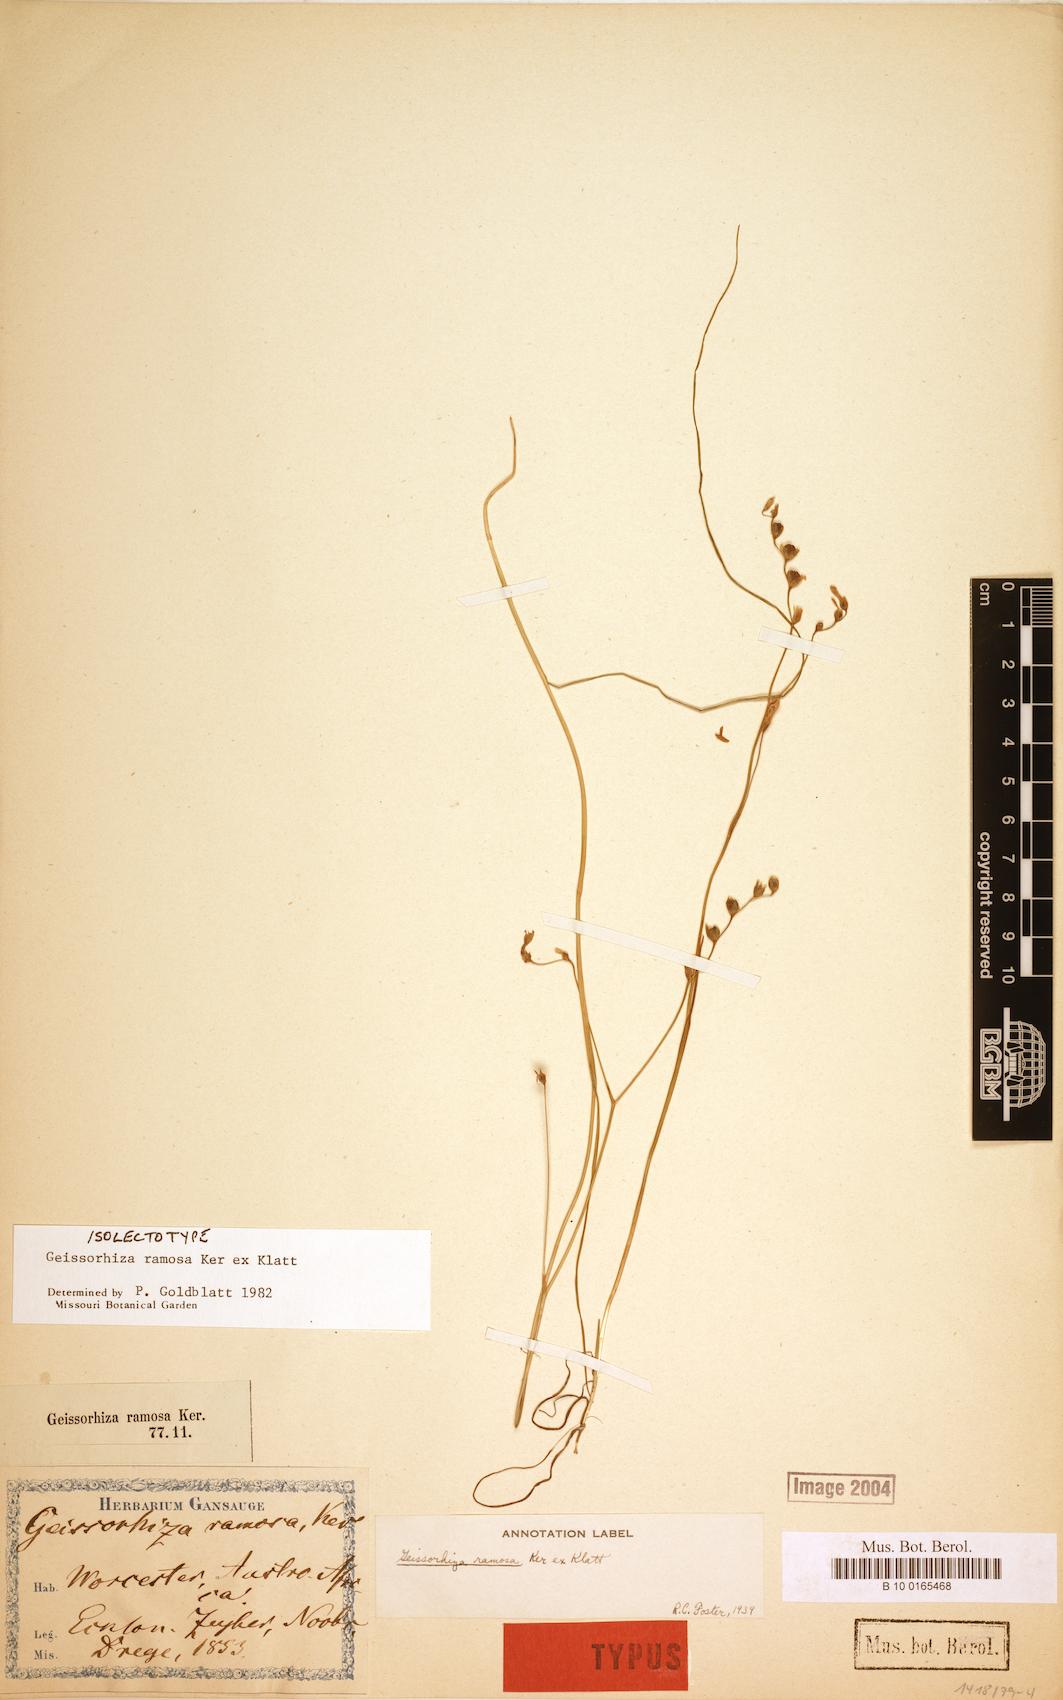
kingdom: Plantae
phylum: Tracheophyta
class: Liliopsida
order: Asparagales
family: Iridaceae
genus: Geissorhiza
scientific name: Geissorhiza ramosa
